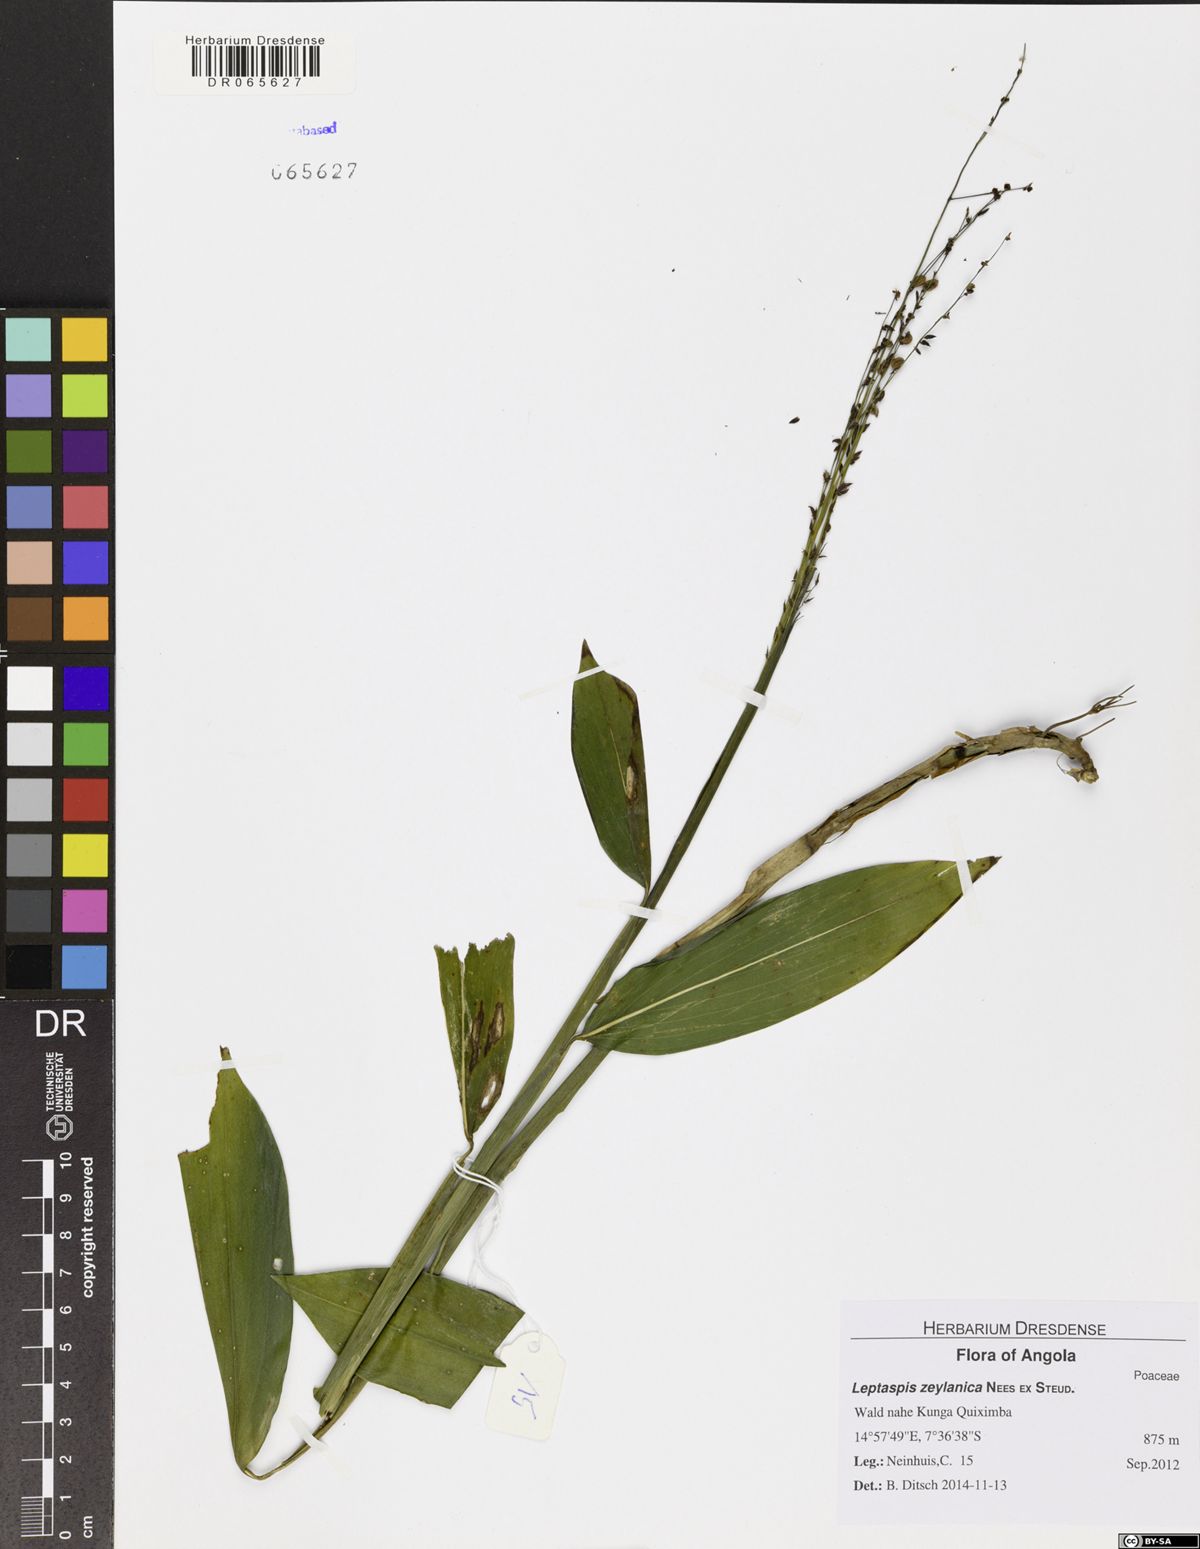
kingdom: Plantae
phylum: Tracheophyta
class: Liliopsida
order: Poales
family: Poaceae
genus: Leptaspis
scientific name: Leptaspis zeylanica
